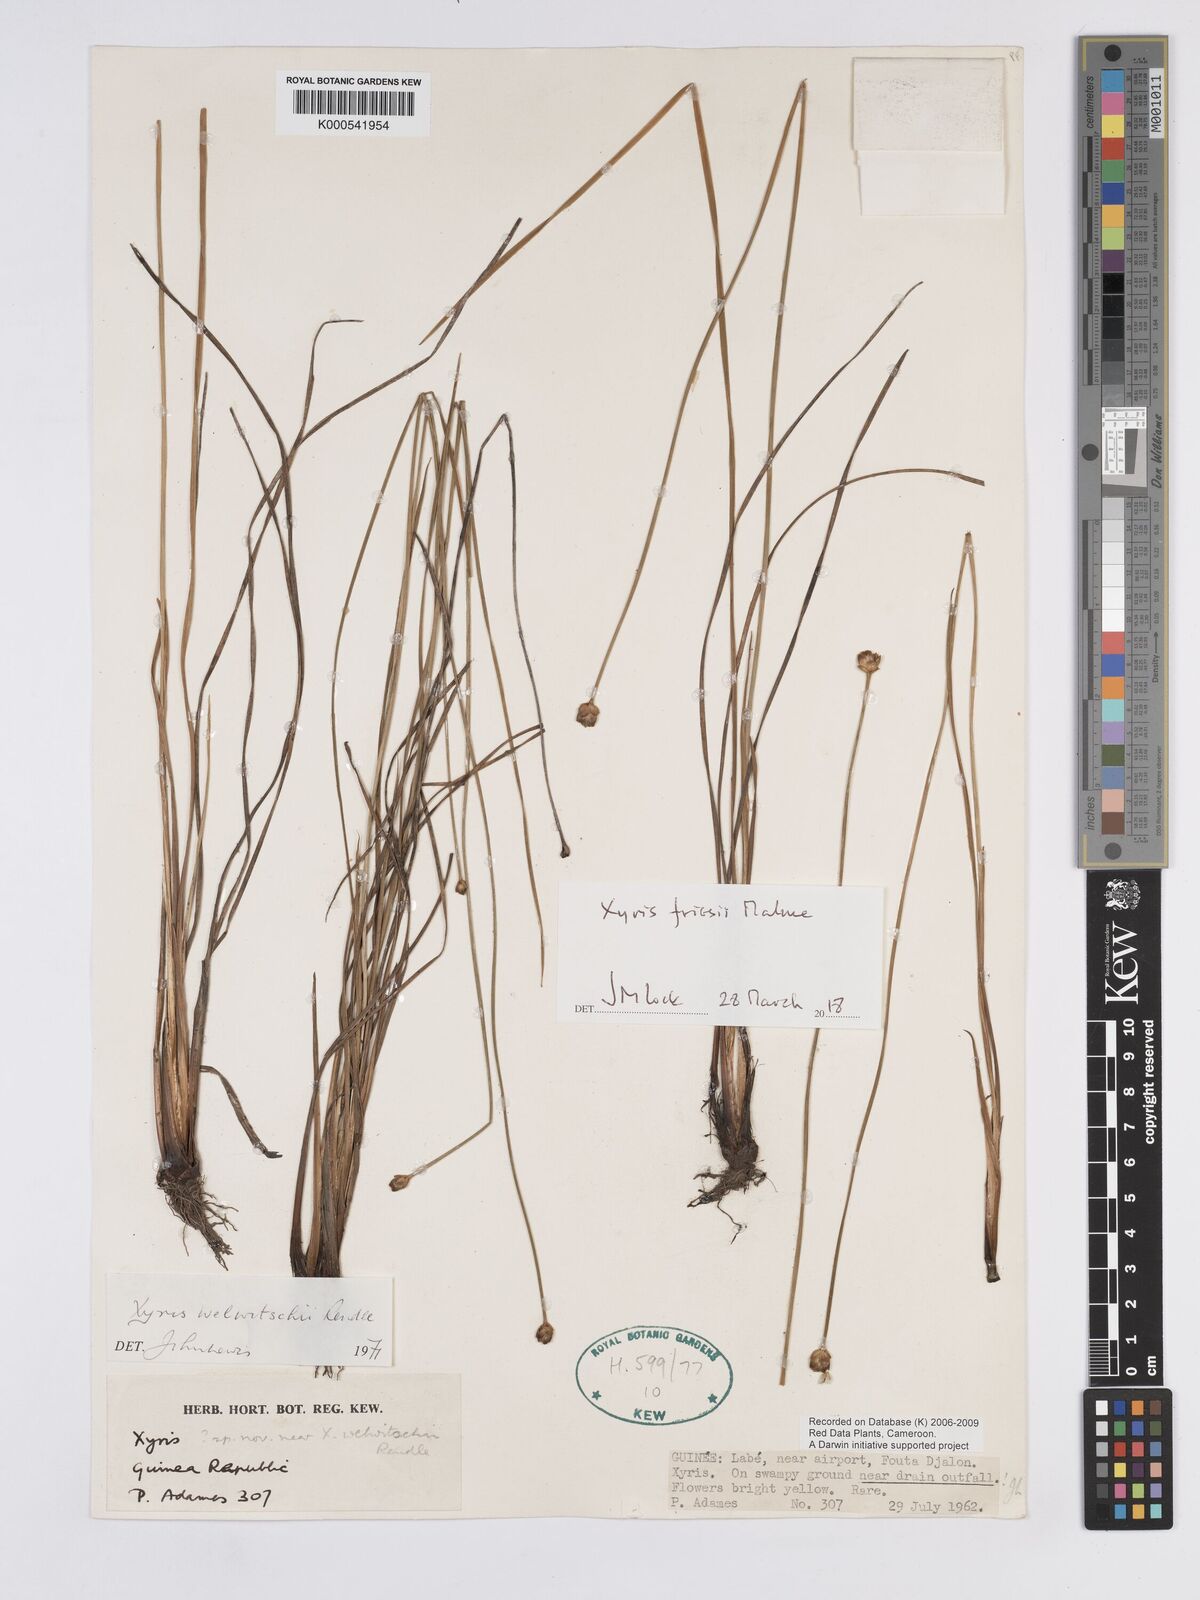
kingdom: Plantae
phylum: Tracheophyta
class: Liliopsida
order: Poales
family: Xyridaceae
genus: Xyris
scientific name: Xyris friesii
